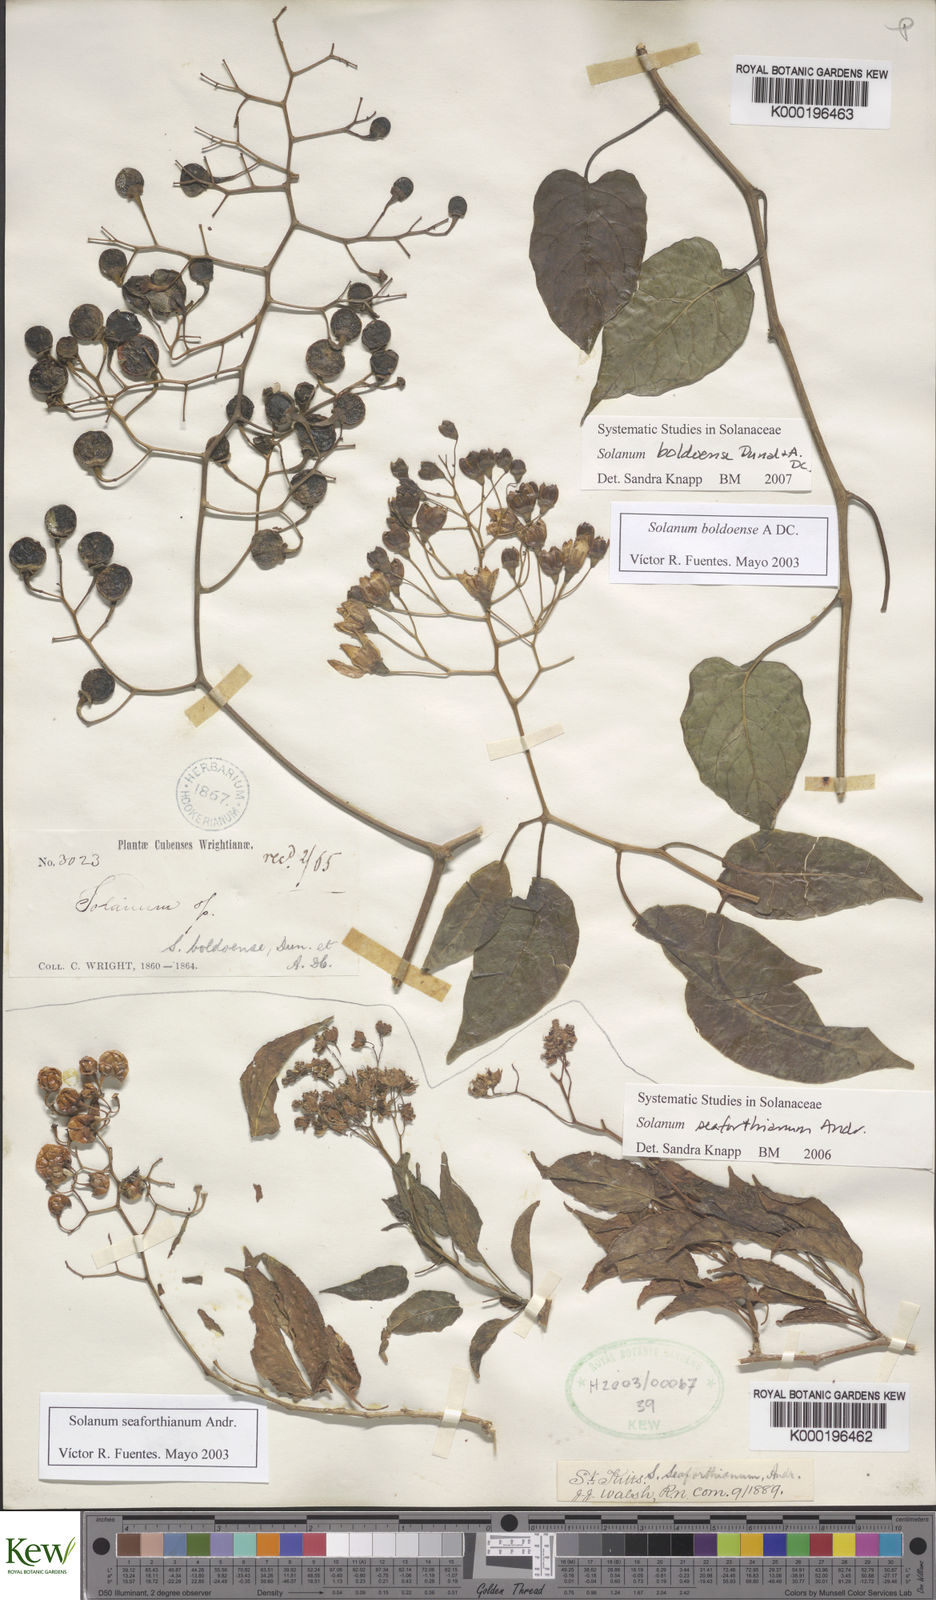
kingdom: Plantae
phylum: Tracheophyta
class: Magnoliopsida
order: Solanales
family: Solanaceae
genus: Solanum
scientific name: Solanum boldoense
